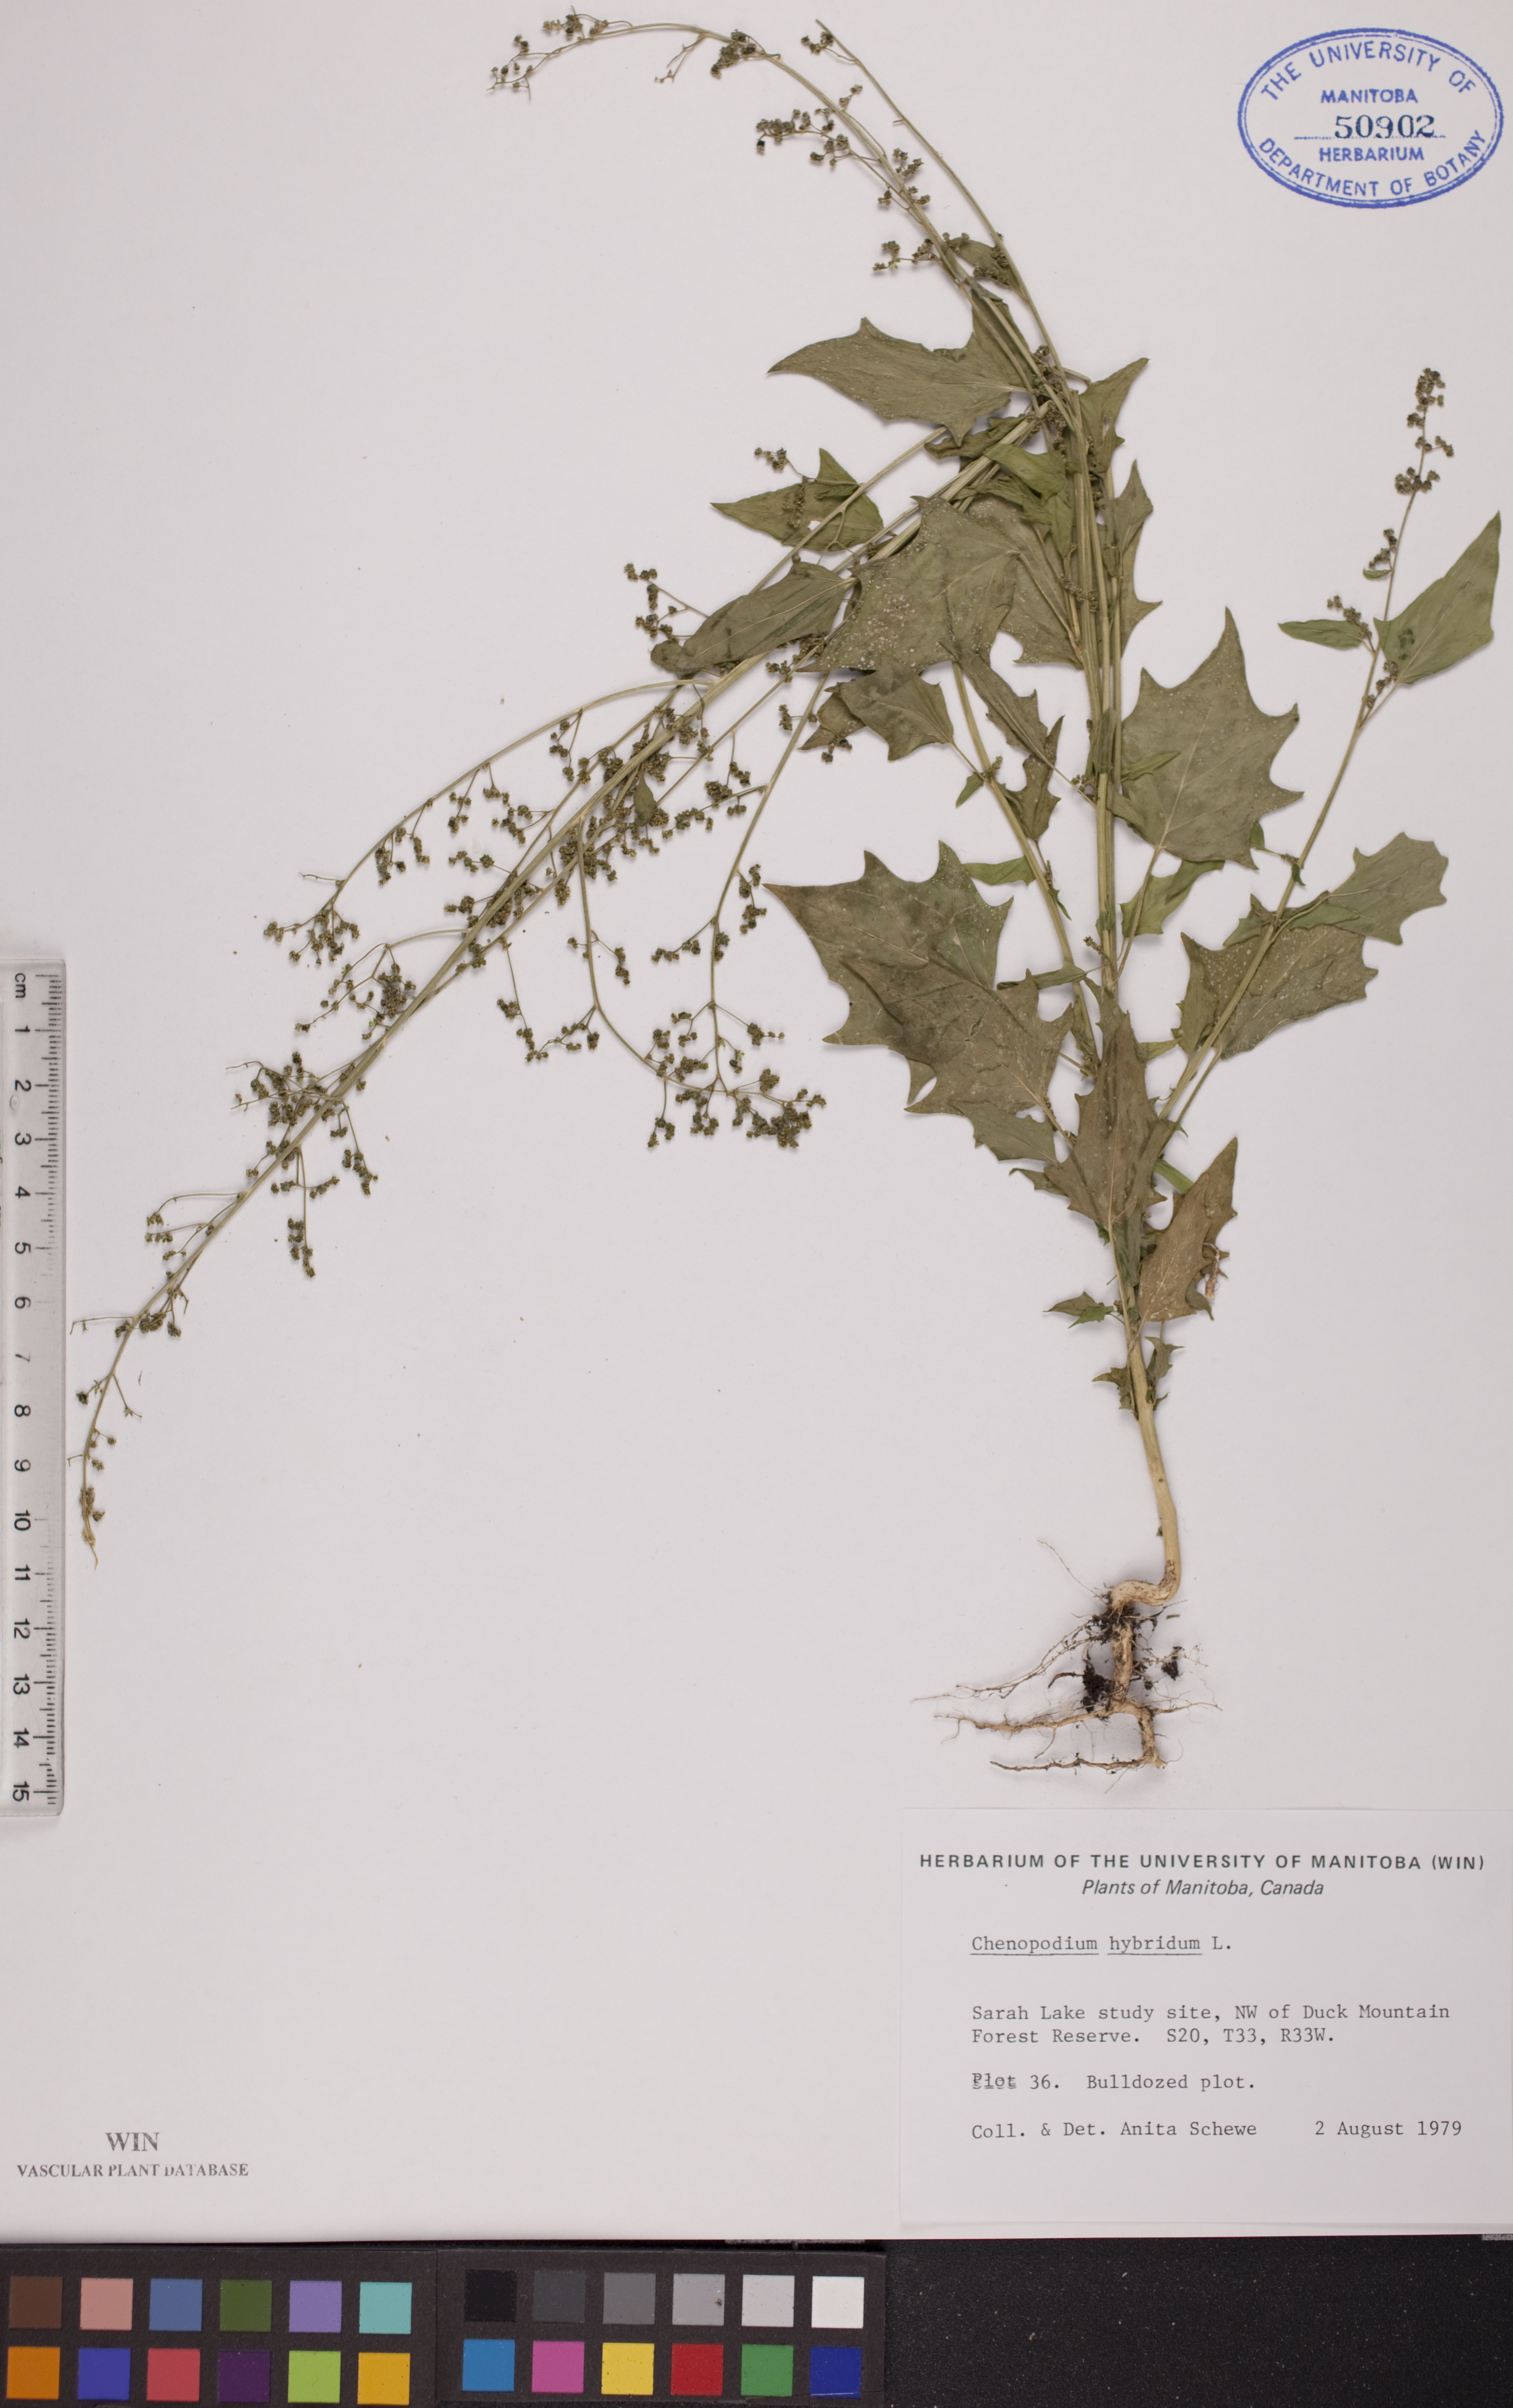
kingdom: Plantae
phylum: Tracheophyta
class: Magnoliopsida
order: Caryophyllales
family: Amaranthaceae
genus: Chenopodiastrum
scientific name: Chenopodiastrum hybridum
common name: Mapleleaf goosefoot
